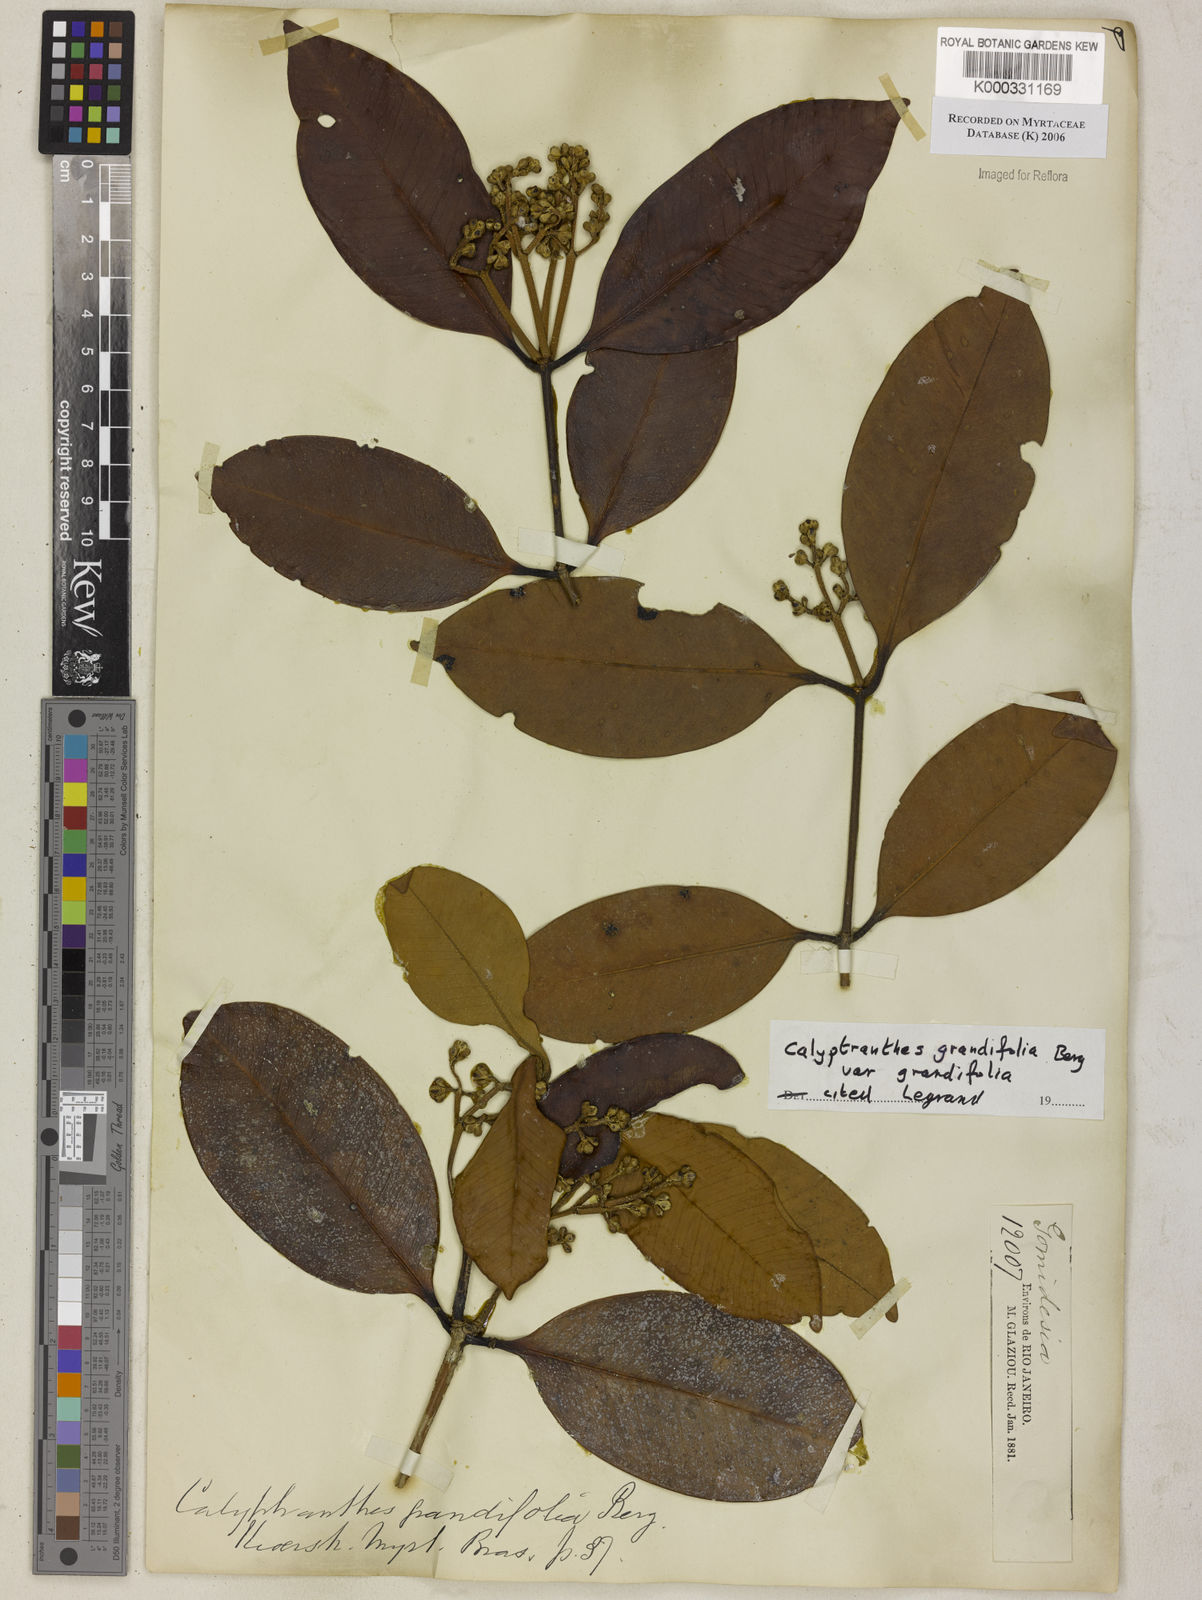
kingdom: Plantae
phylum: Tracheophyta
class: Magnoliopsida
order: Myrtales
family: Myrtaceae
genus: Calyptranthes
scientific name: Calyptranthes grandifolia
